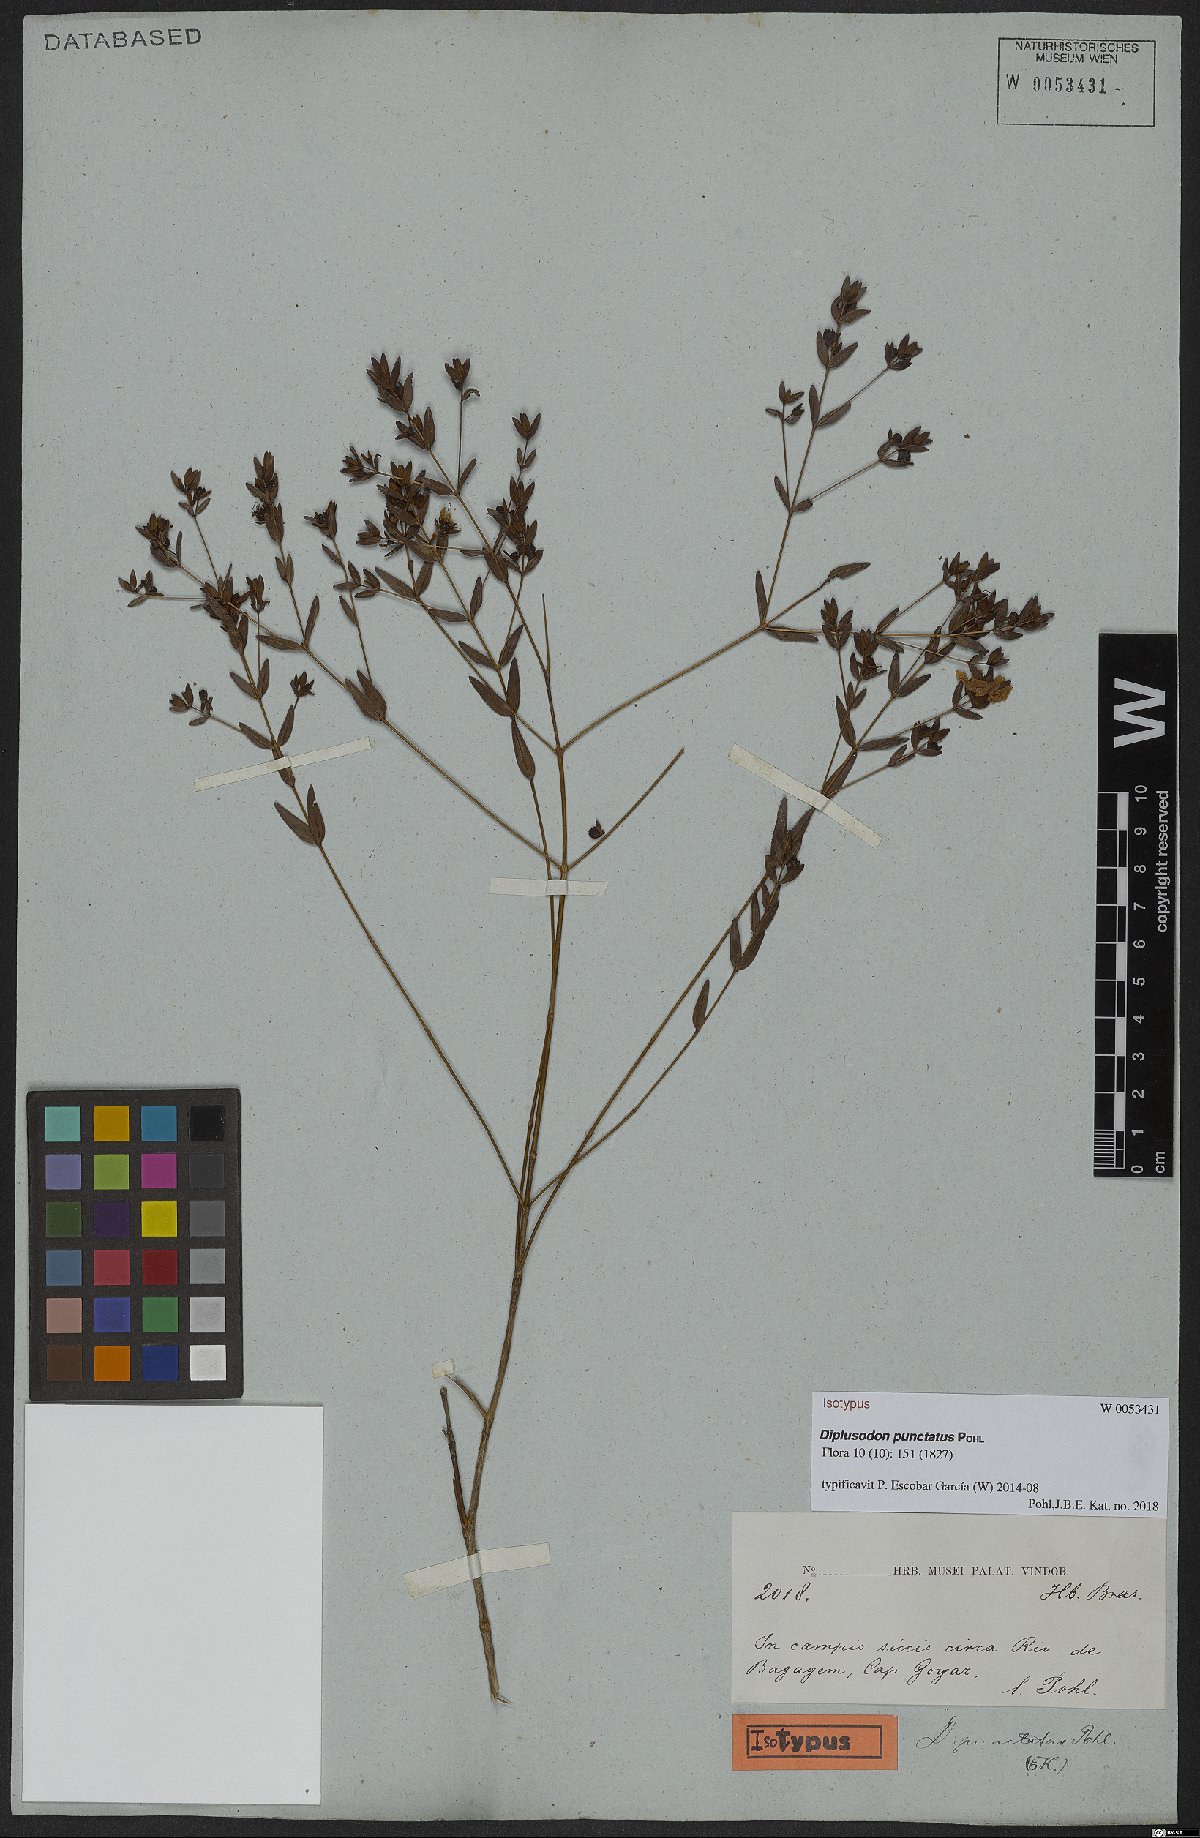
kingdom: Plantae
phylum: Tracheophyta
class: Magnoliopsida
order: Myrtales
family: Lythraceae
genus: Diplusodon
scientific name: Diplusodon punctatus
